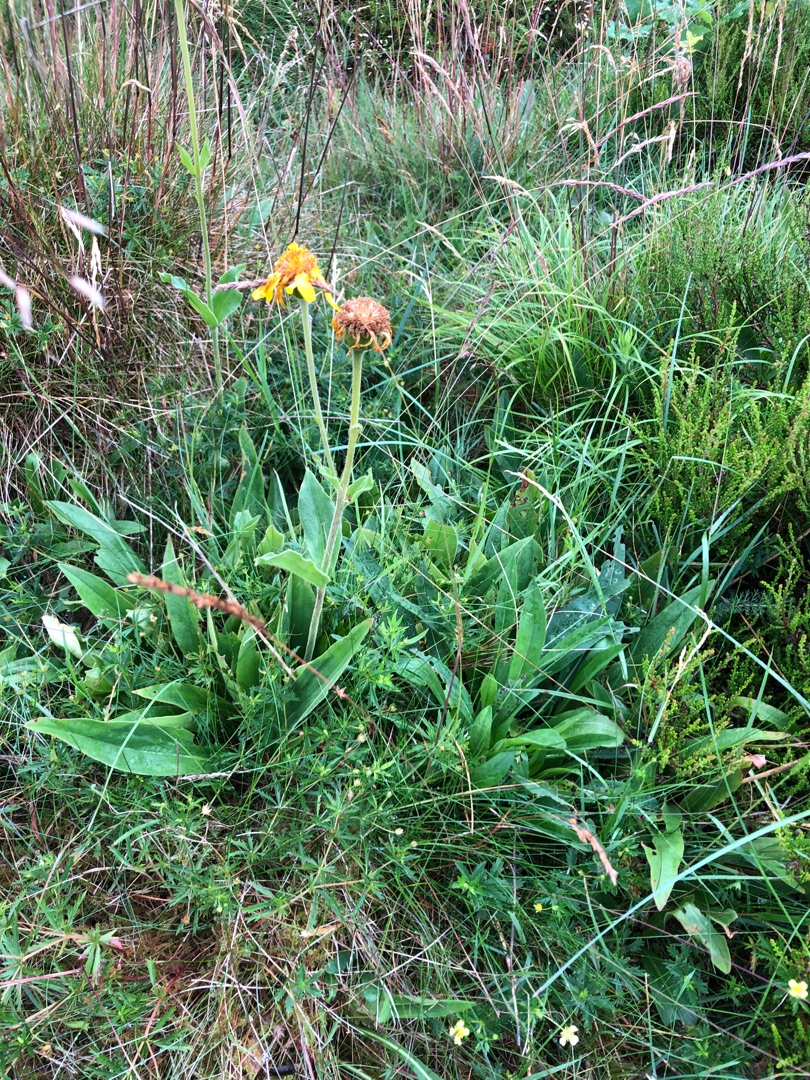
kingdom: Plantae
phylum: Tracheophyta
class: Magnoliopsida
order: Asterales
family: Asteraceae
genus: Arnica
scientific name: Arnica montana
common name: Guldblomme
